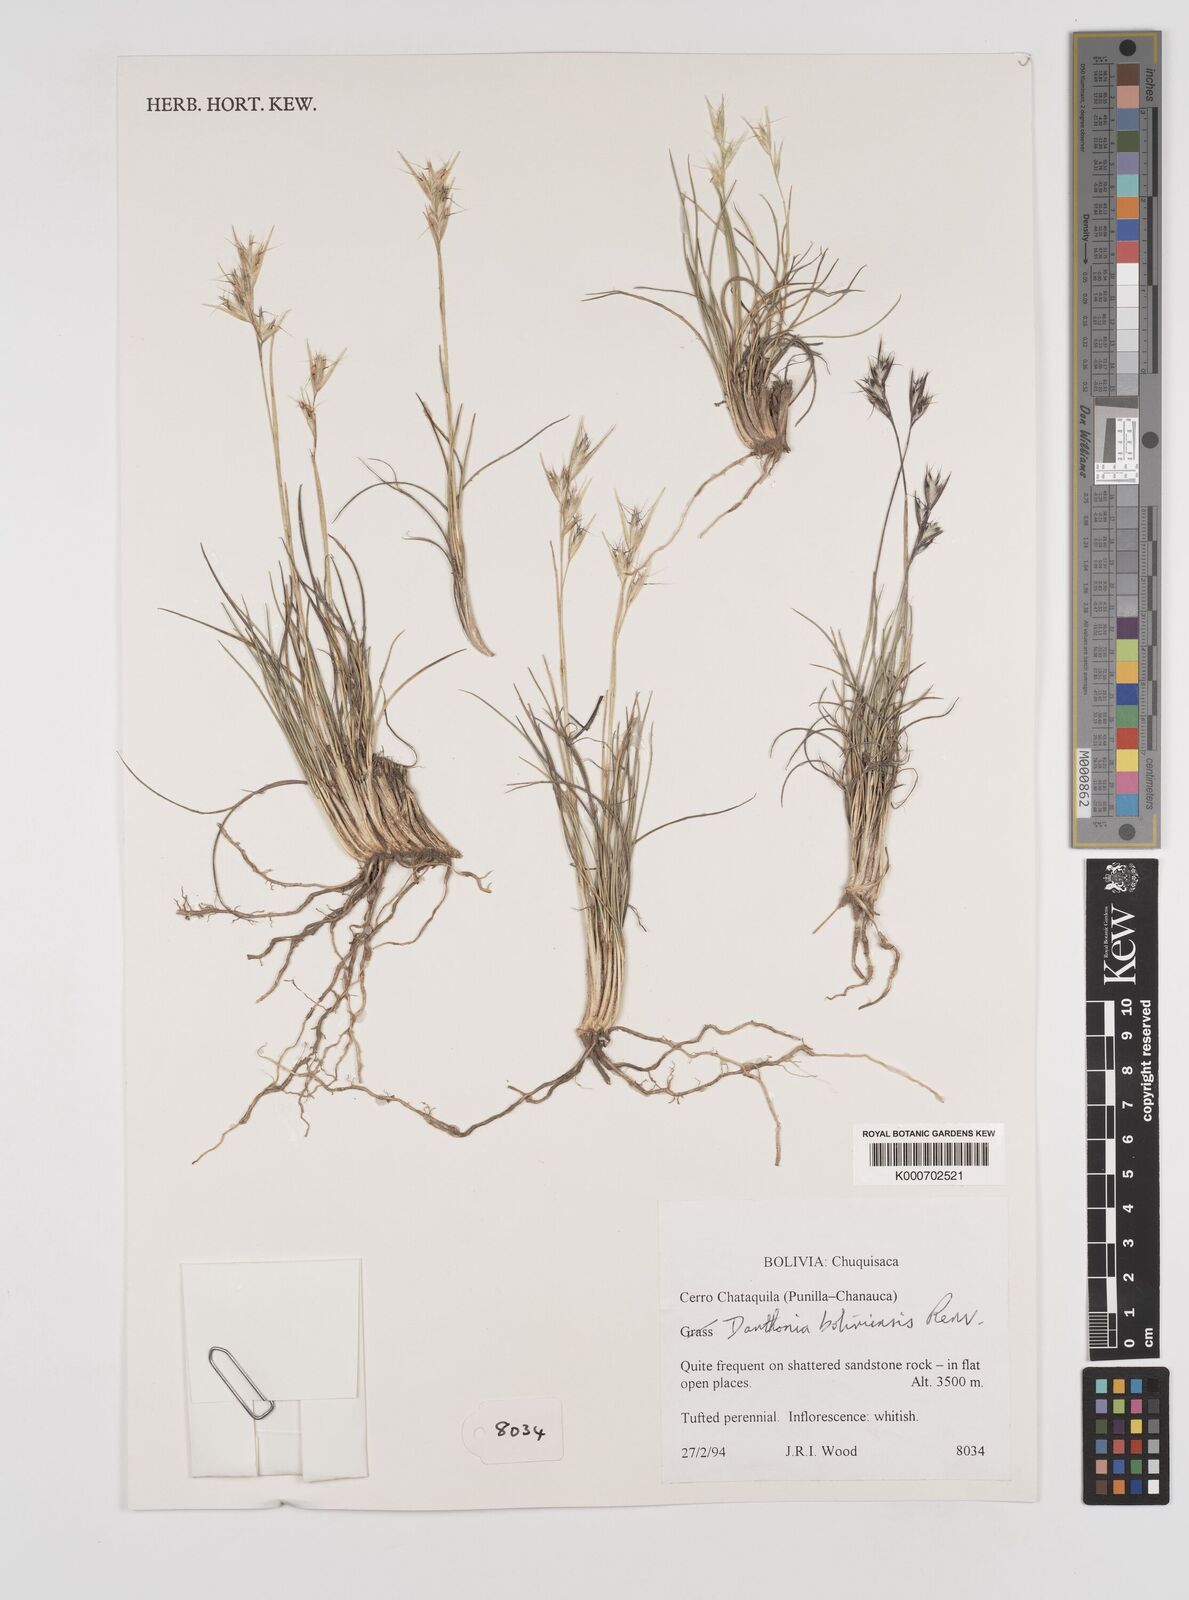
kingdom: Plantae
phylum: Tracheophyta
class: Liliopsida
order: Poales
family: Poaceae
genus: Danthonia
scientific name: Danthonia boliviensis
